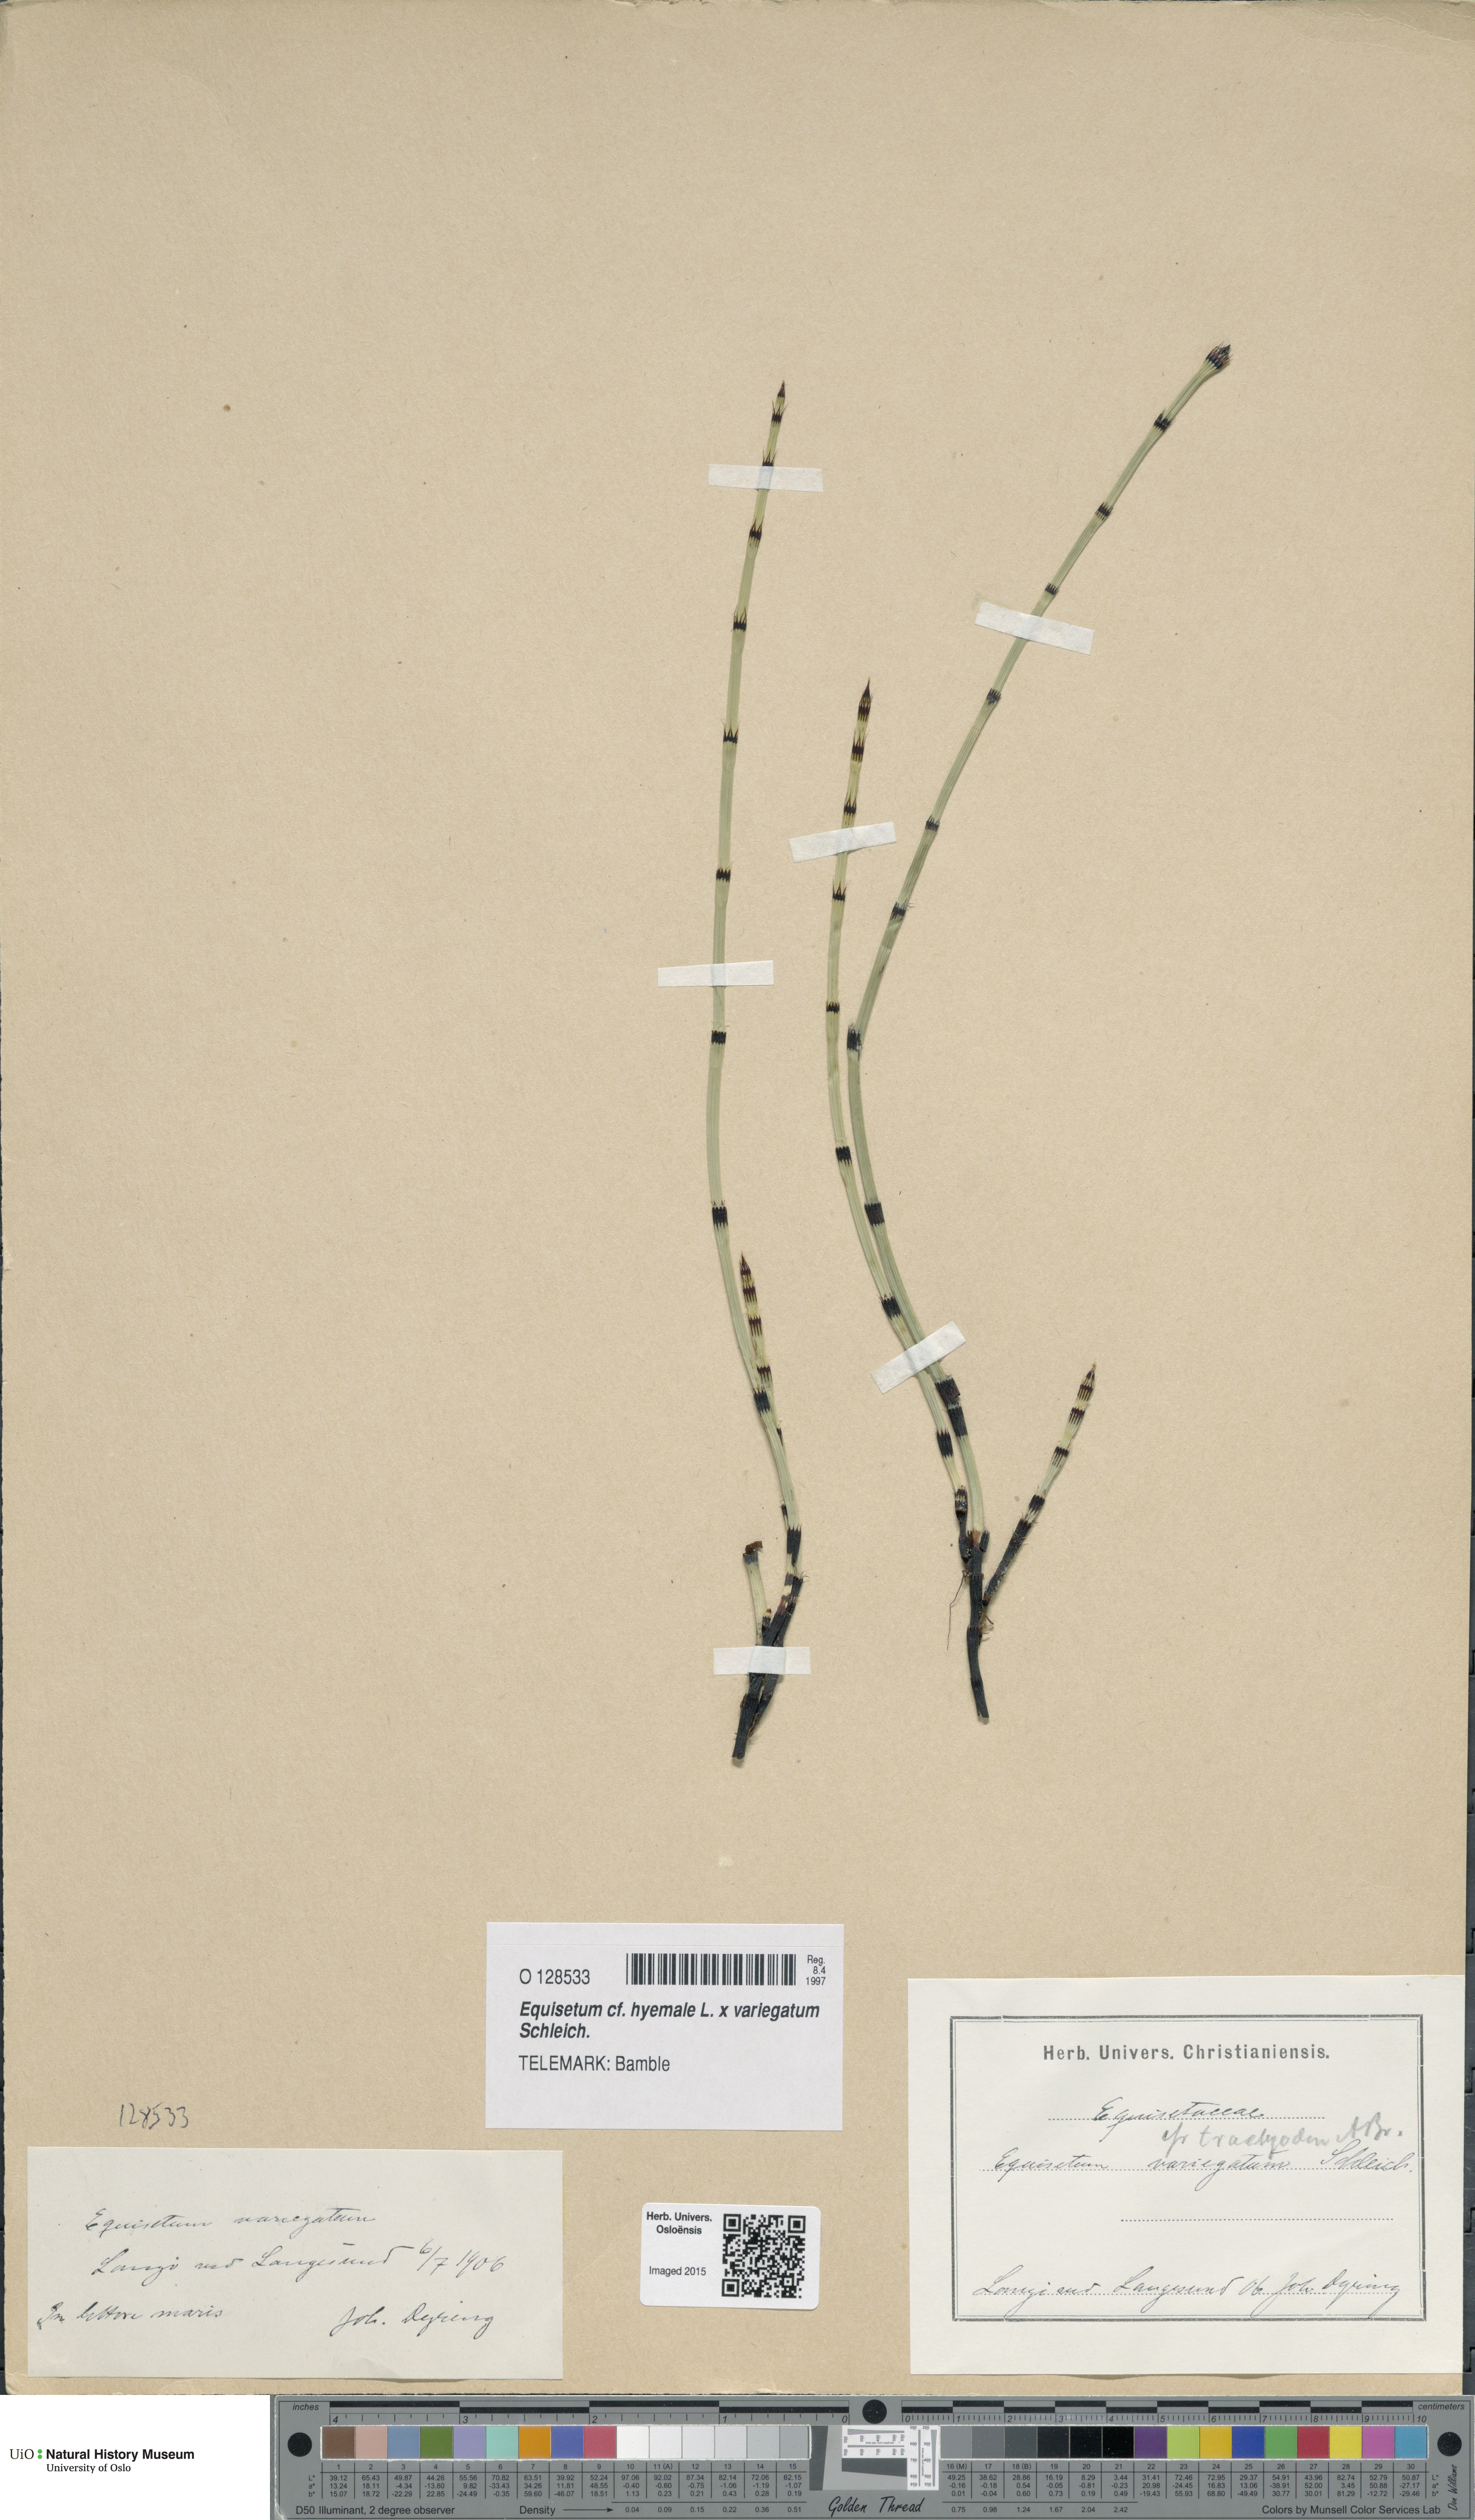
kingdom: Plantae
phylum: Tracheophyta
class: Polypodiopsida
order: Equisetales
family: Equisetaceae
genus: Equisetum
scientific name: Equisetum
